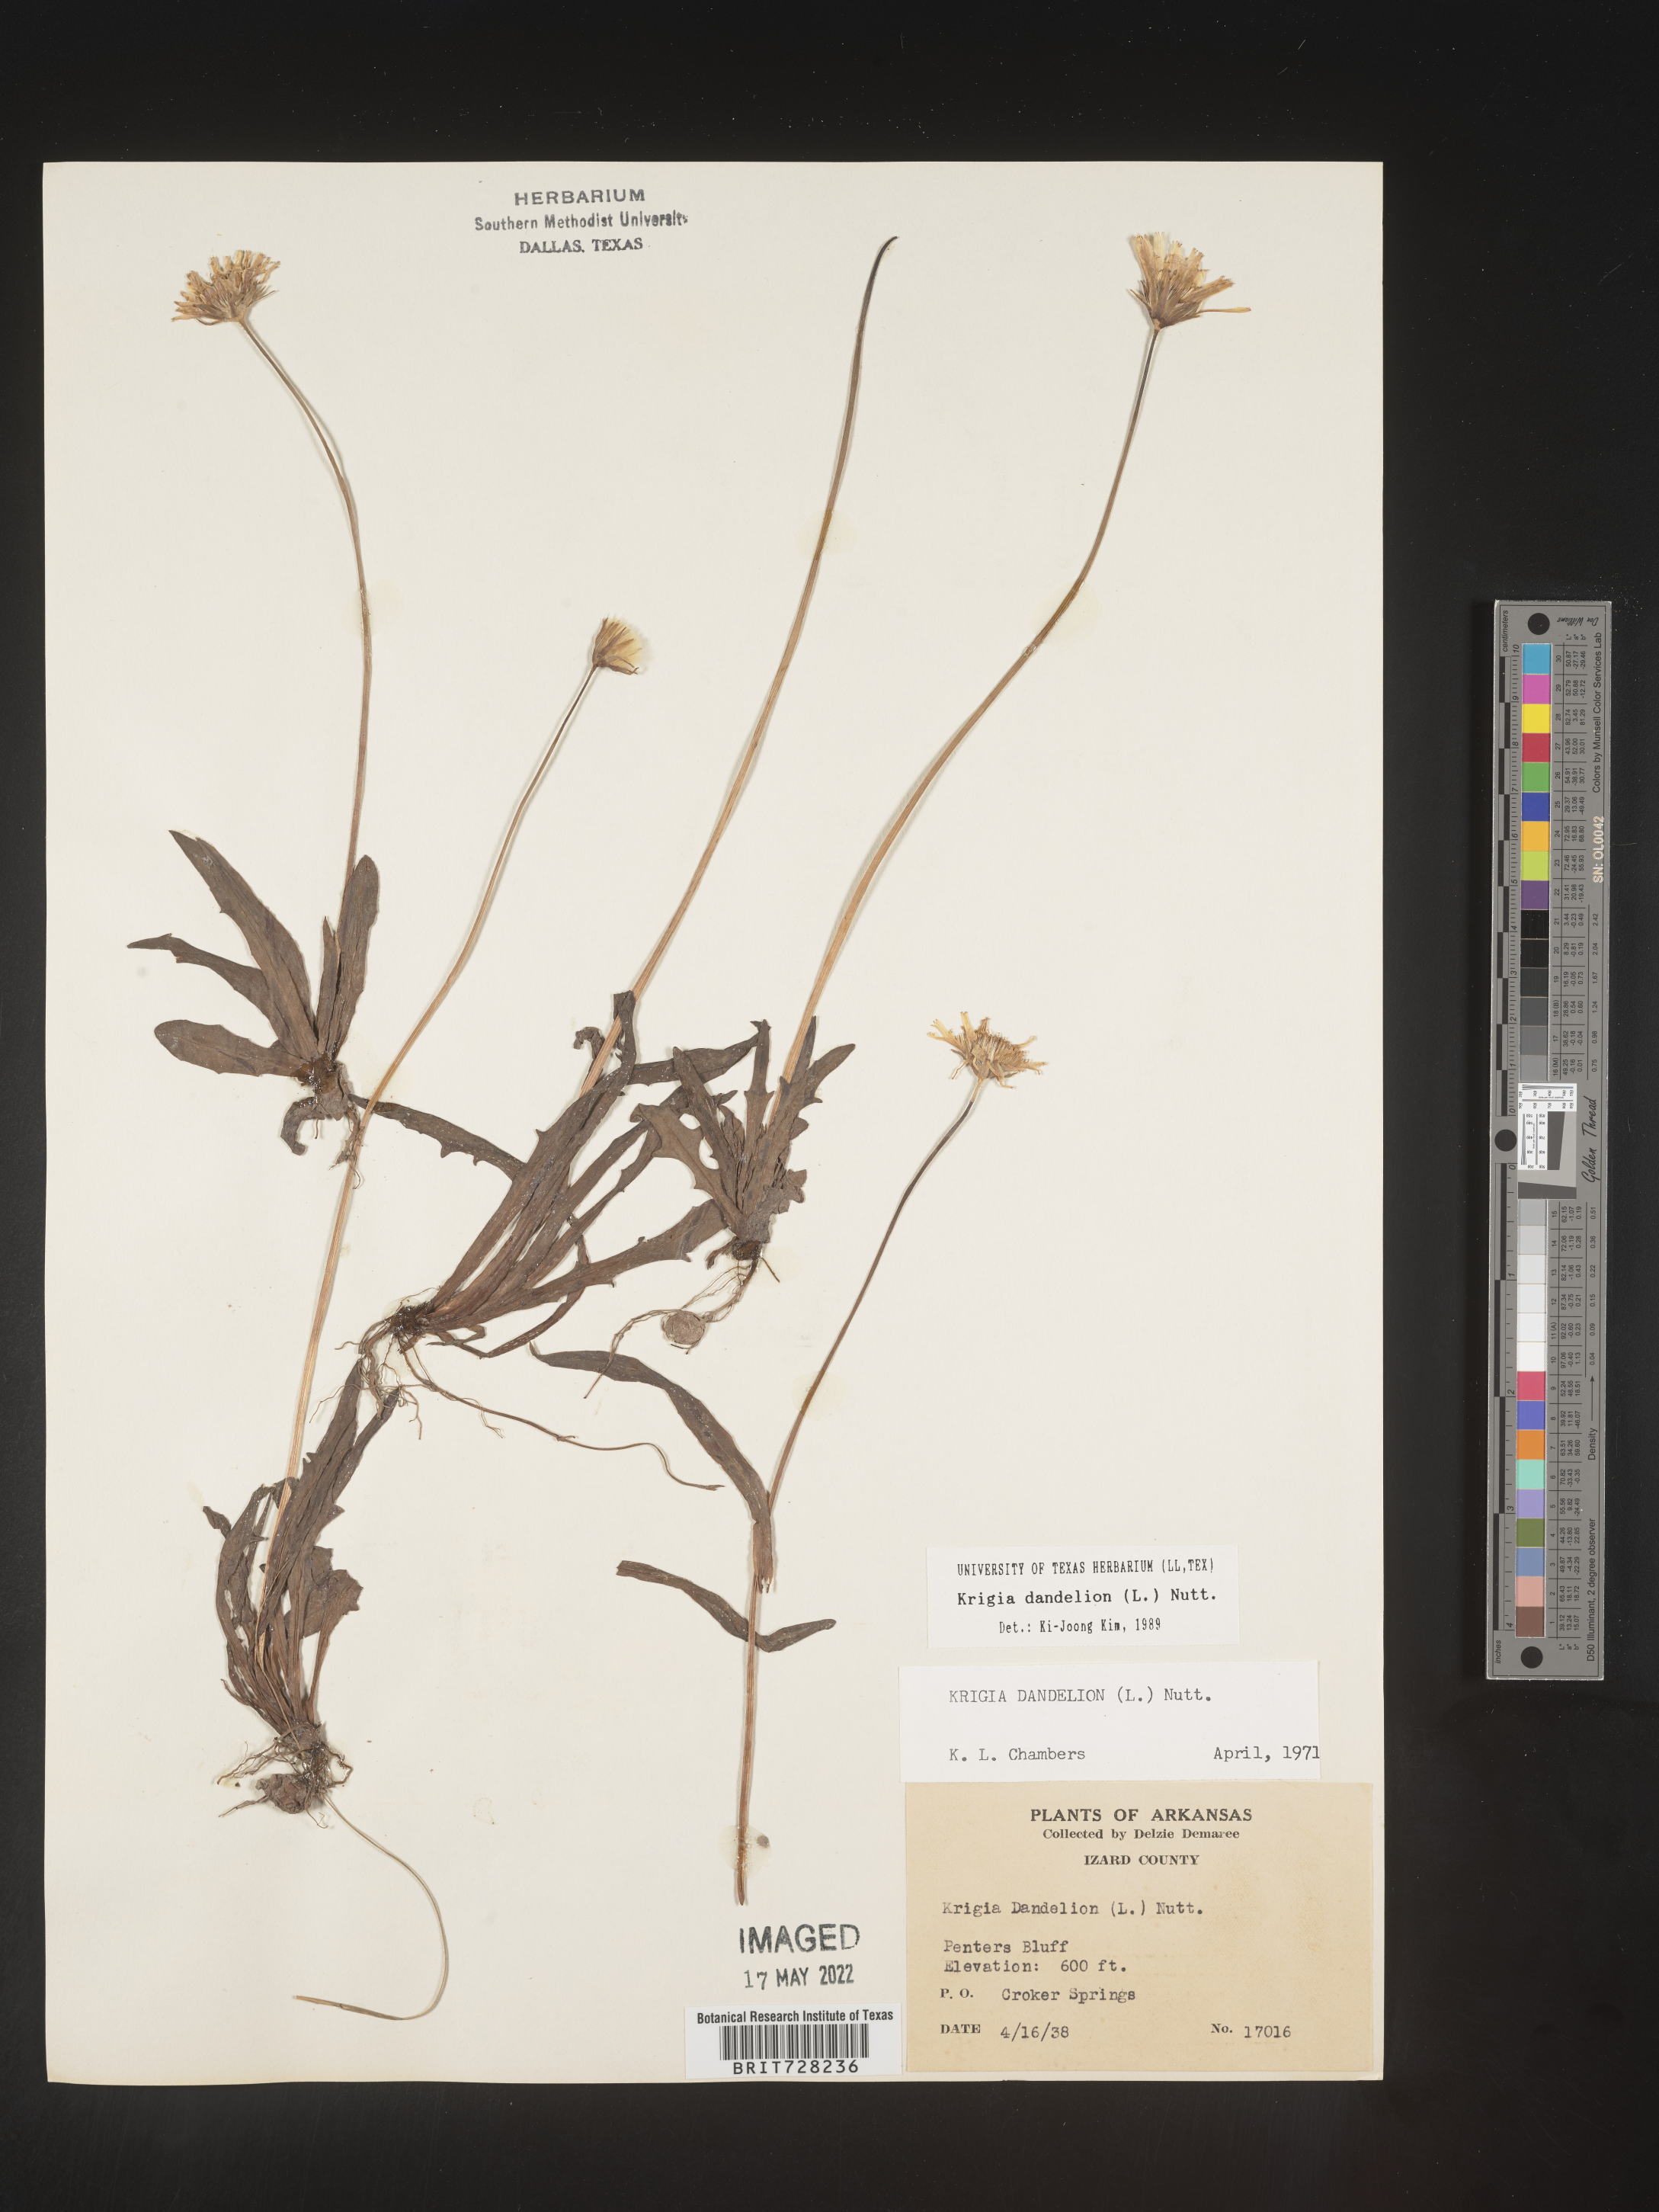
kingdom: Plantae
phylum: Tracheophyta
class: Magnoliopsida
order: Asterales
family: Asteraceae
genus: Krigia
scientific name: Krigia dandelion
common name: Colonial dwarf-dandelion
